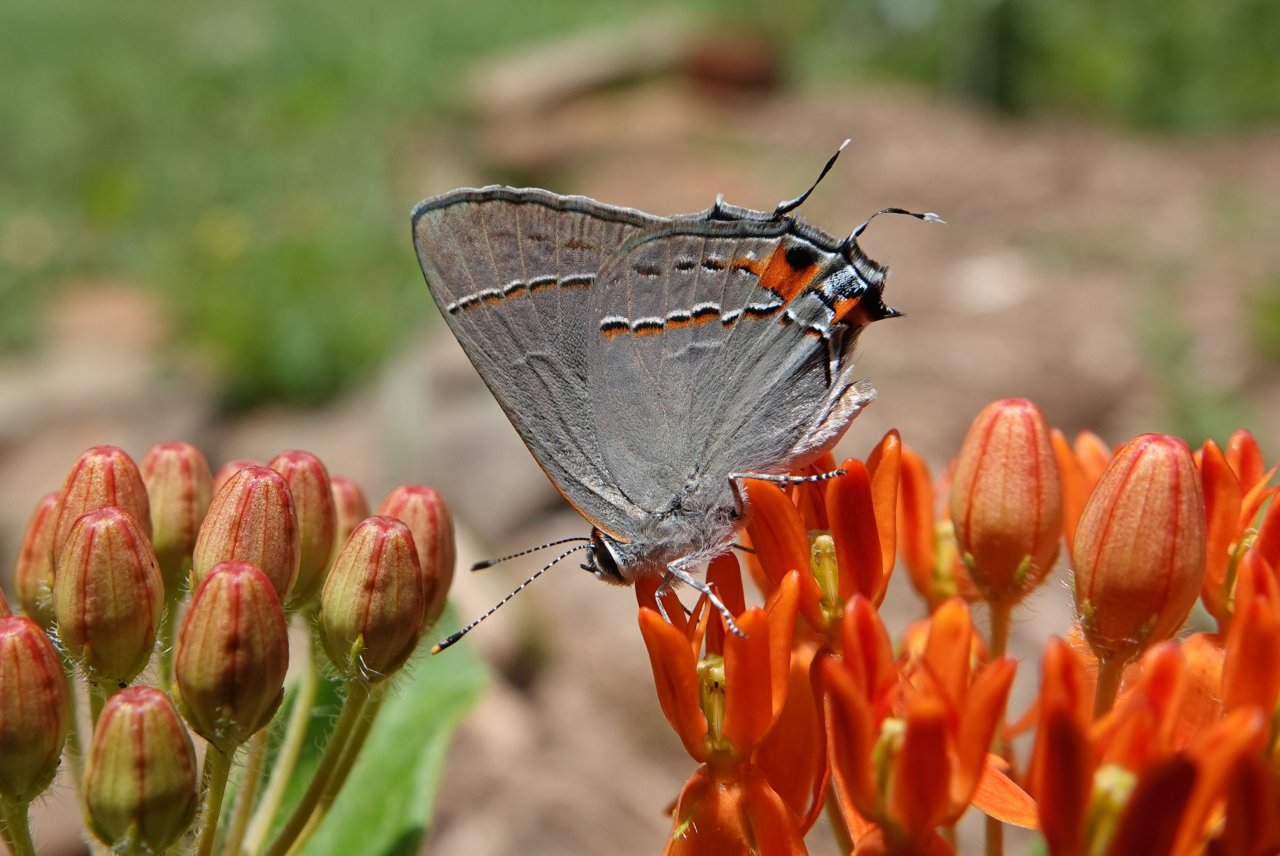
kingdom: Animalia
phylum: Arthropoda
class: Insecta
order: Lepidoptera
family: Lycaenidae
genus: Strymon
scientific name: Strymon melinus
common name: Gray Hairstreak
